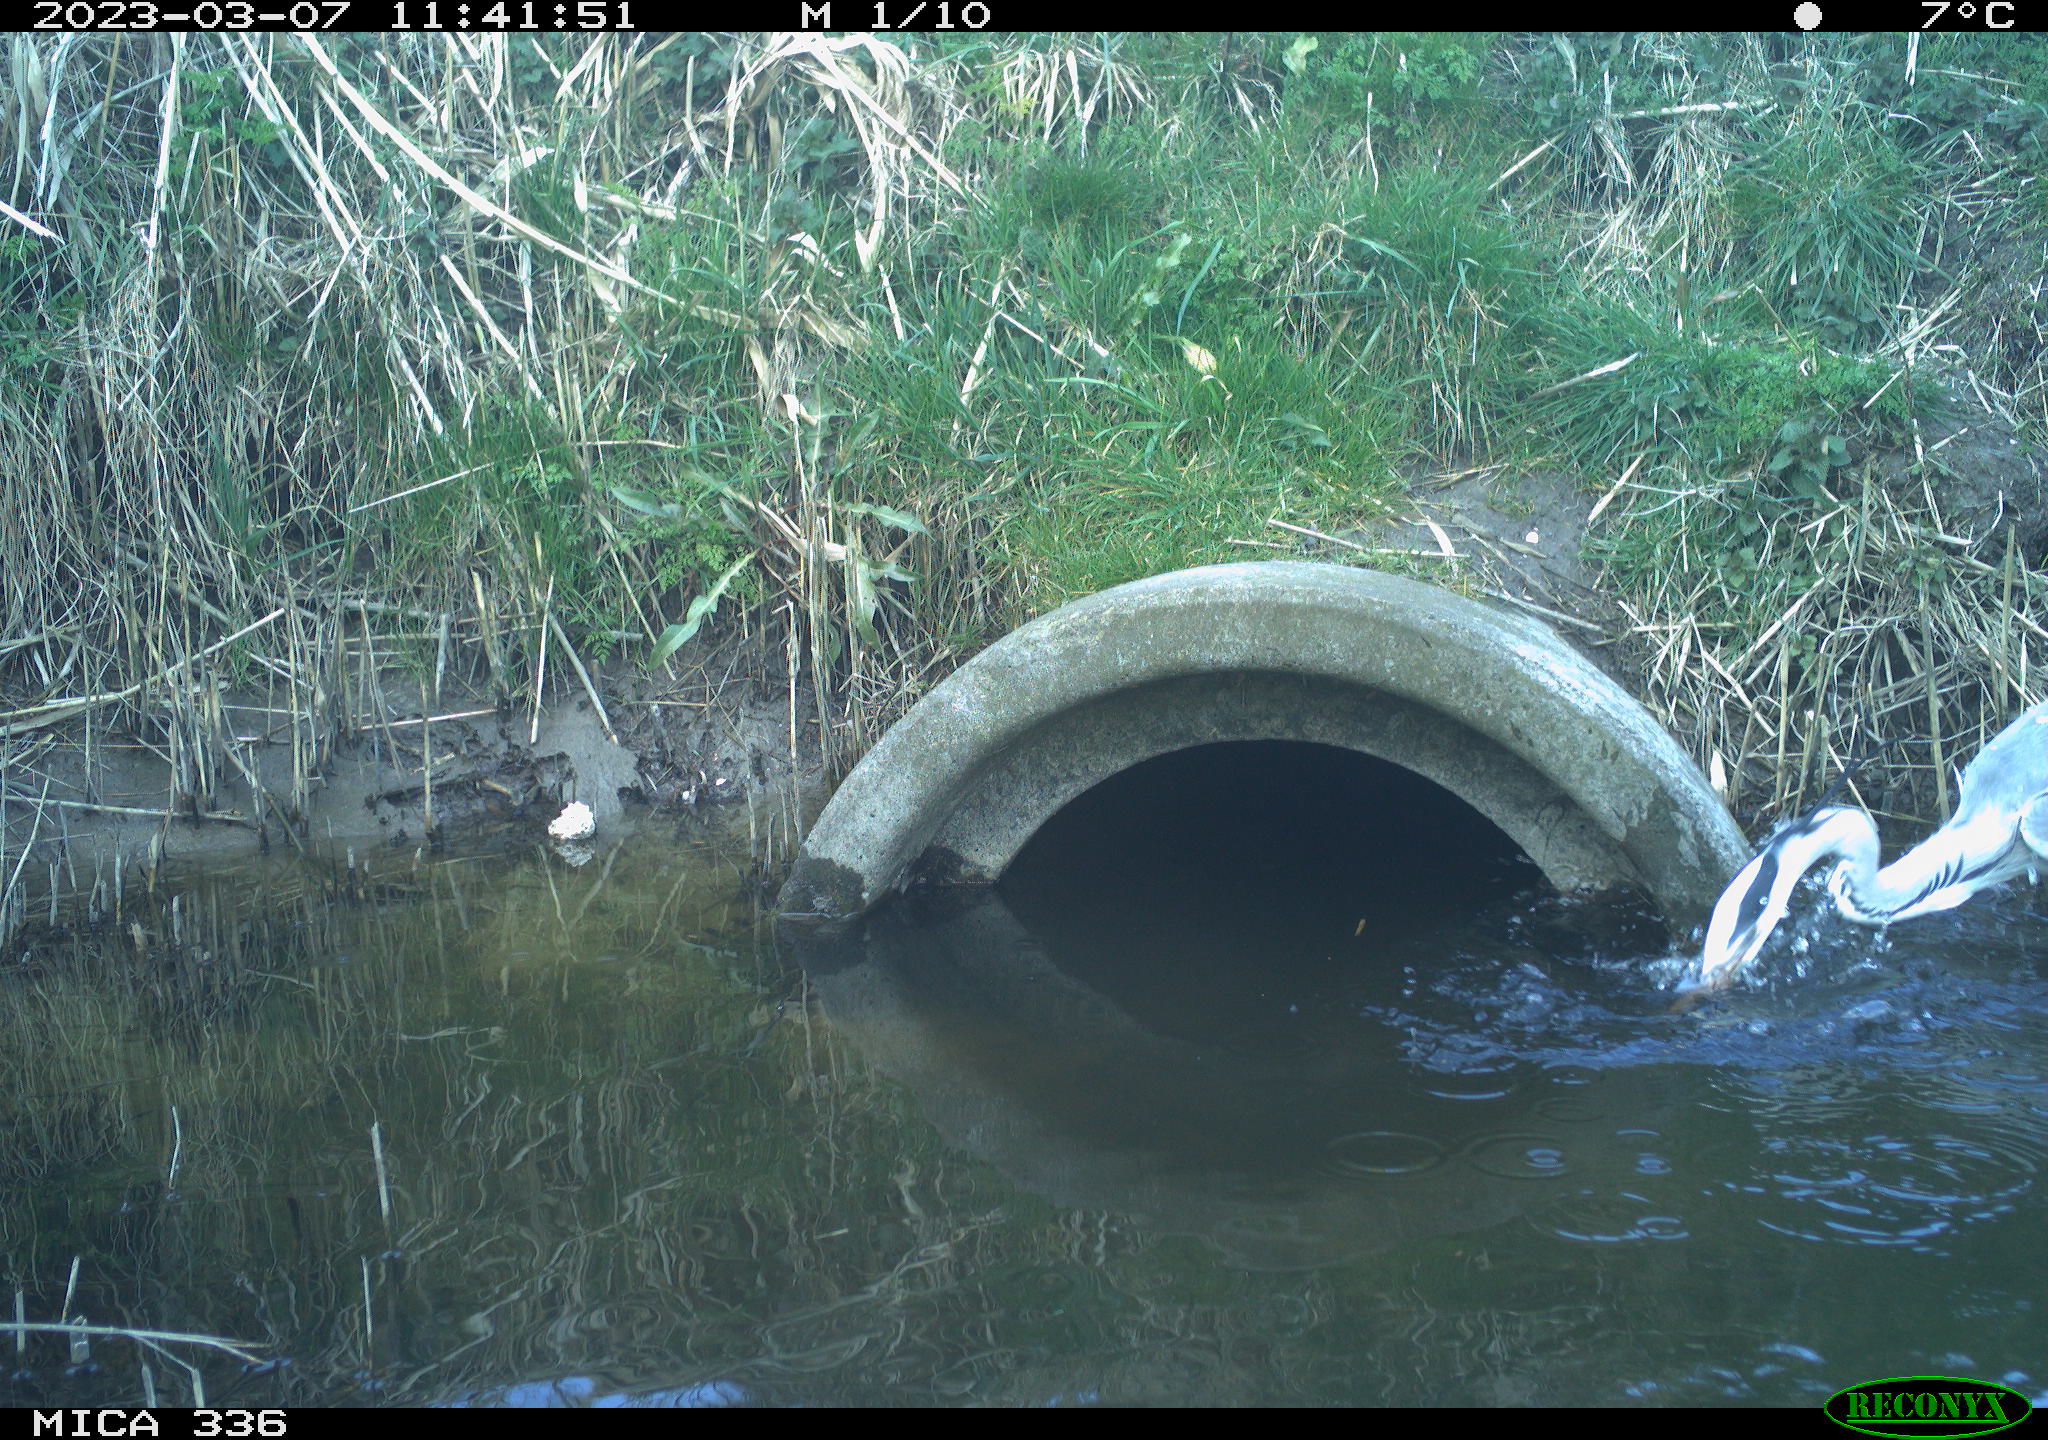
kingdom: Animalia
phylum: Chordata
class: Aves
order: Pelecaniformes
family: Ardeidae
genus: Ardea
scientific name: Ardea cinerea
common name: Grey heron
